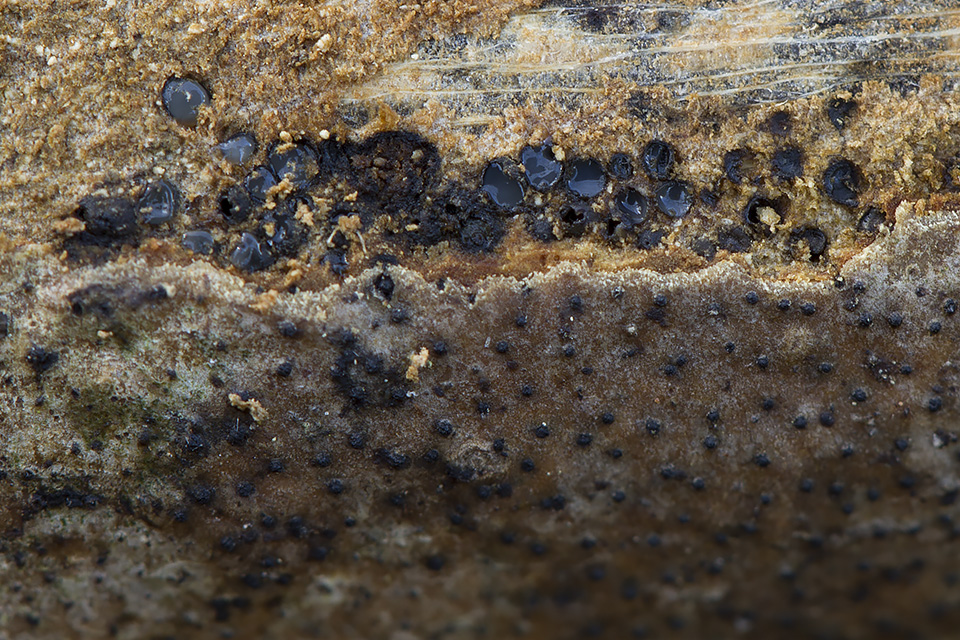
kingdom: Fungi
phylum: Ascomycota
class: Sordariomycetes
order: Diaporthales
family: Valsaceae
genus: Cytospora
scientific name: Cytospora populina
